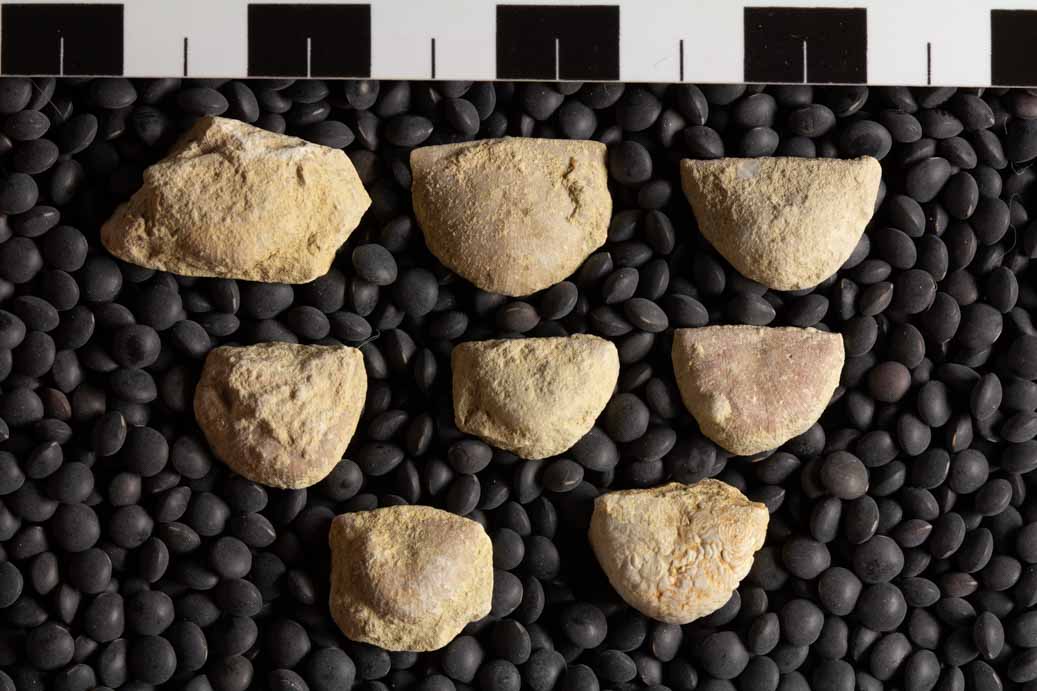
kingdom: Animalia
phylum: Brachiopoda
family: Strophomenidae
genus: Strophomena
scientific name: Strophomena
